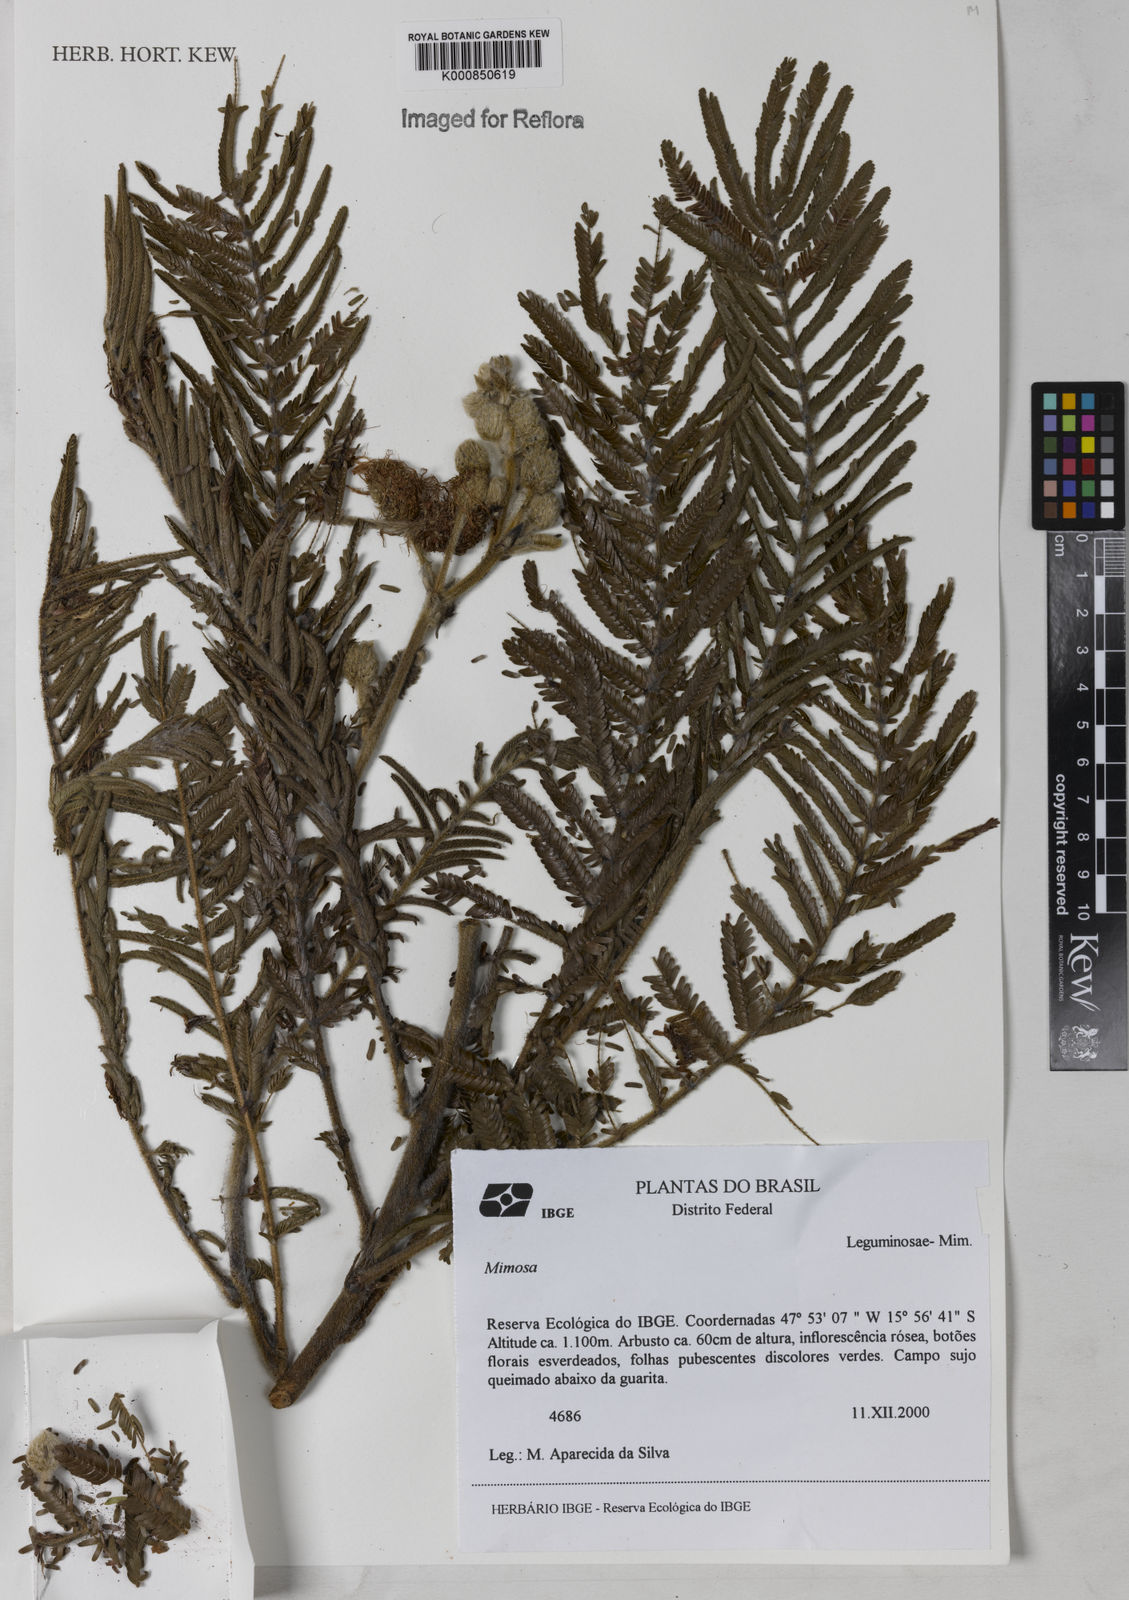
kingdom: Plantae
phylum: Tracheophyta
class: Magnoliopsida
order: Fabales
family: Fabaceae
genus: Mimosa
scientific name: Mimosa albolanata
